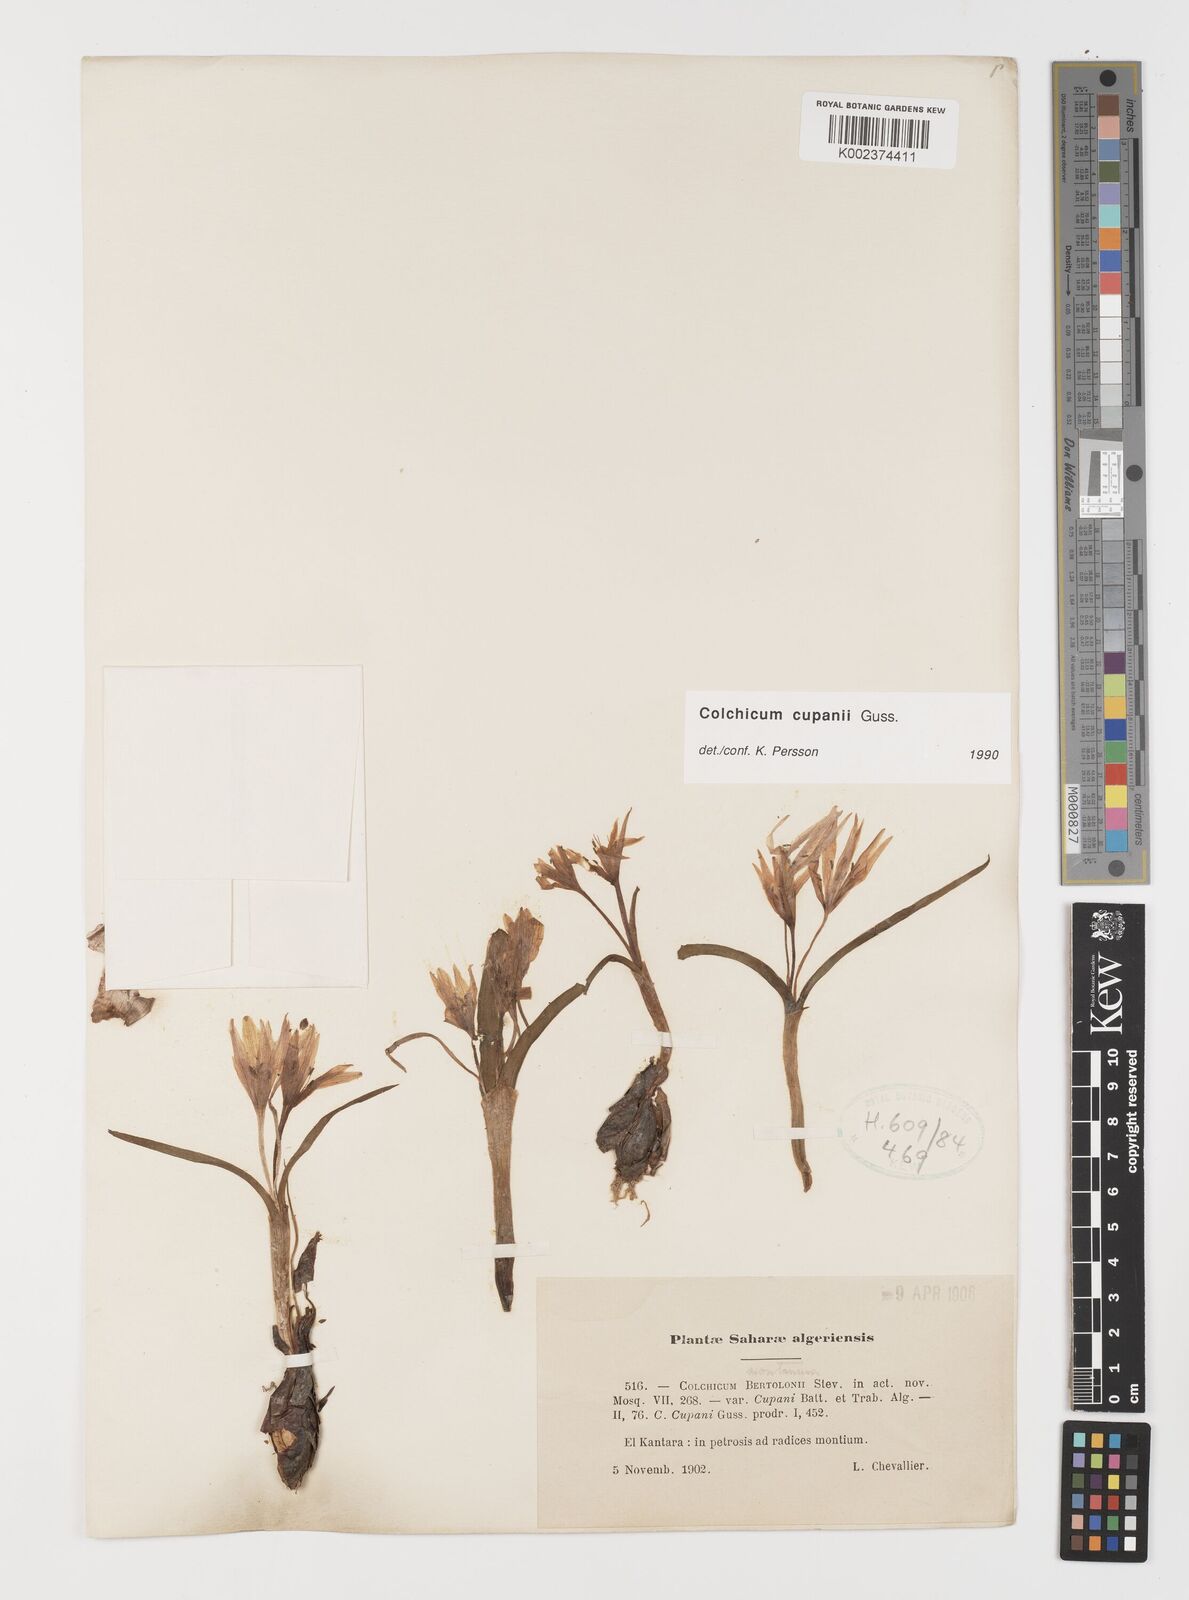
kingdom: Plantae
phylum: Tracheophyta
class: Liliopsida
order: Liliales
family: Colchicaceae
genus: Colchicum
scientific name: Colchicum cupanii
